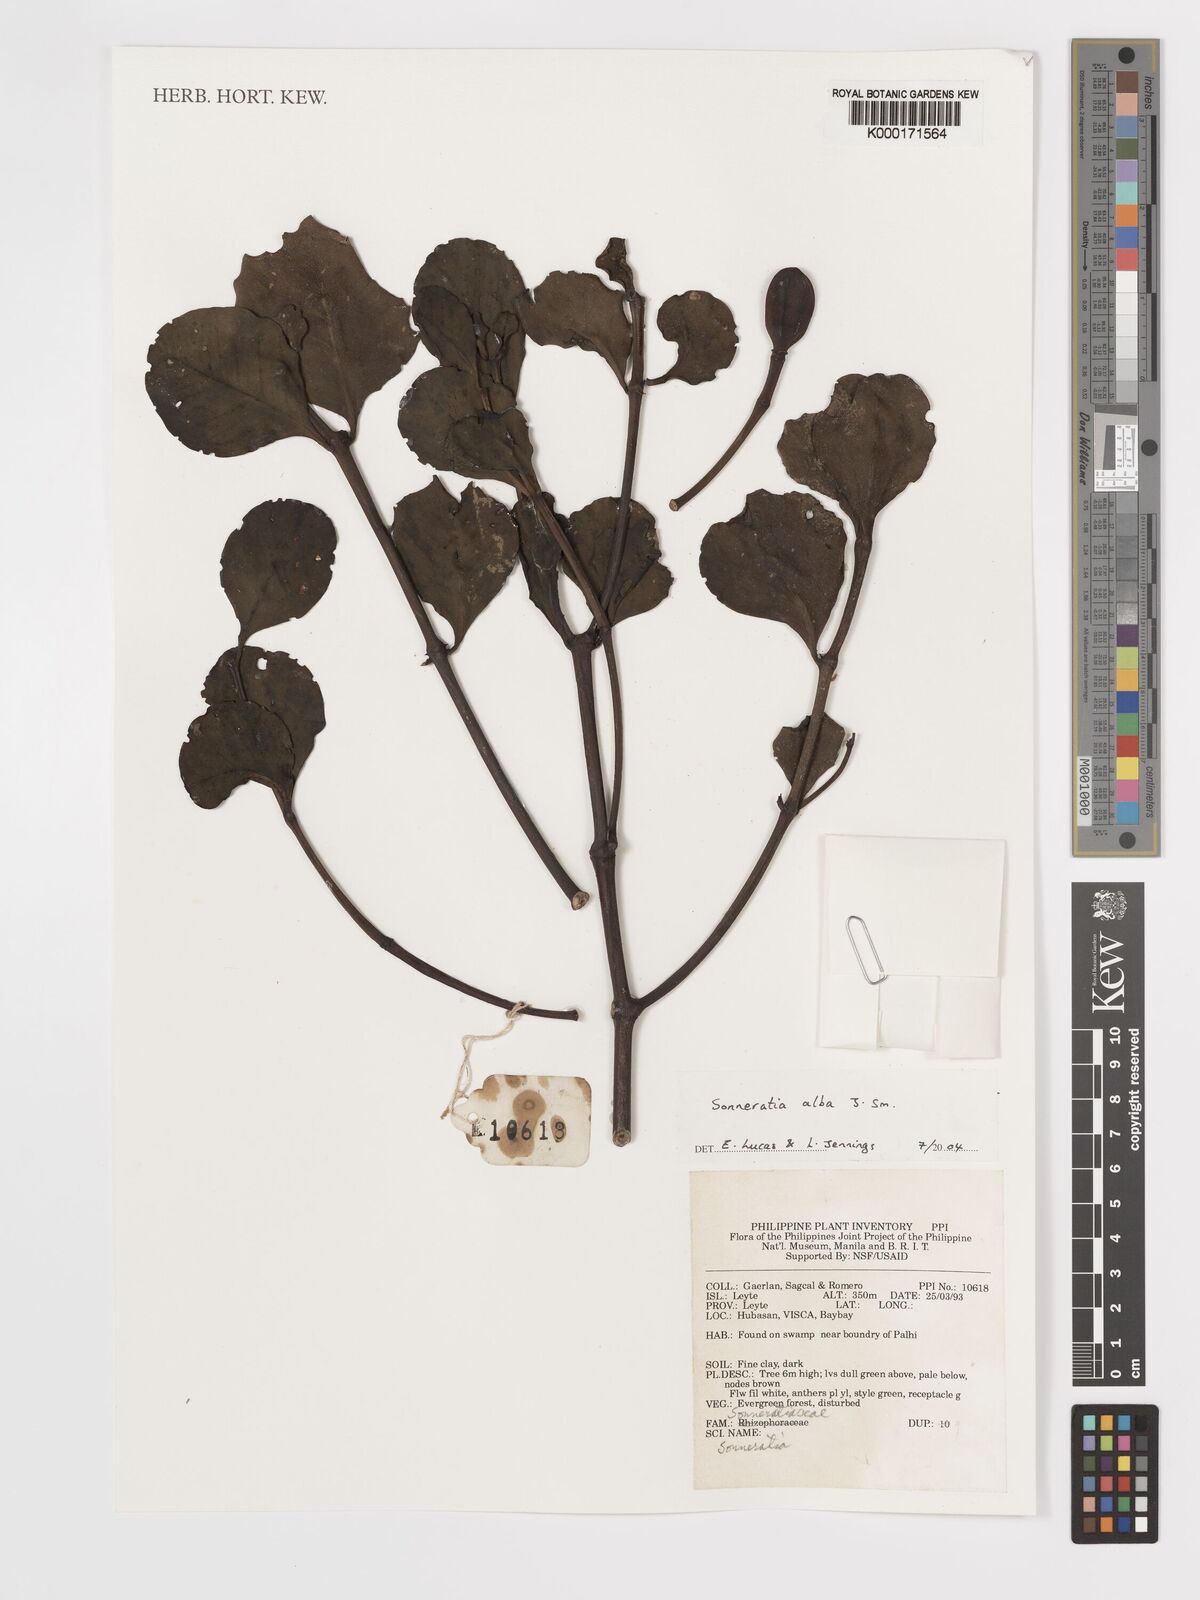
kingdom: Plantae
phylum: Tracheophyta
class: Magnoliopsida
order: Myrtales
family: Lythraceae
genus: Sonneratia
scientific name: Sonneratia alba
